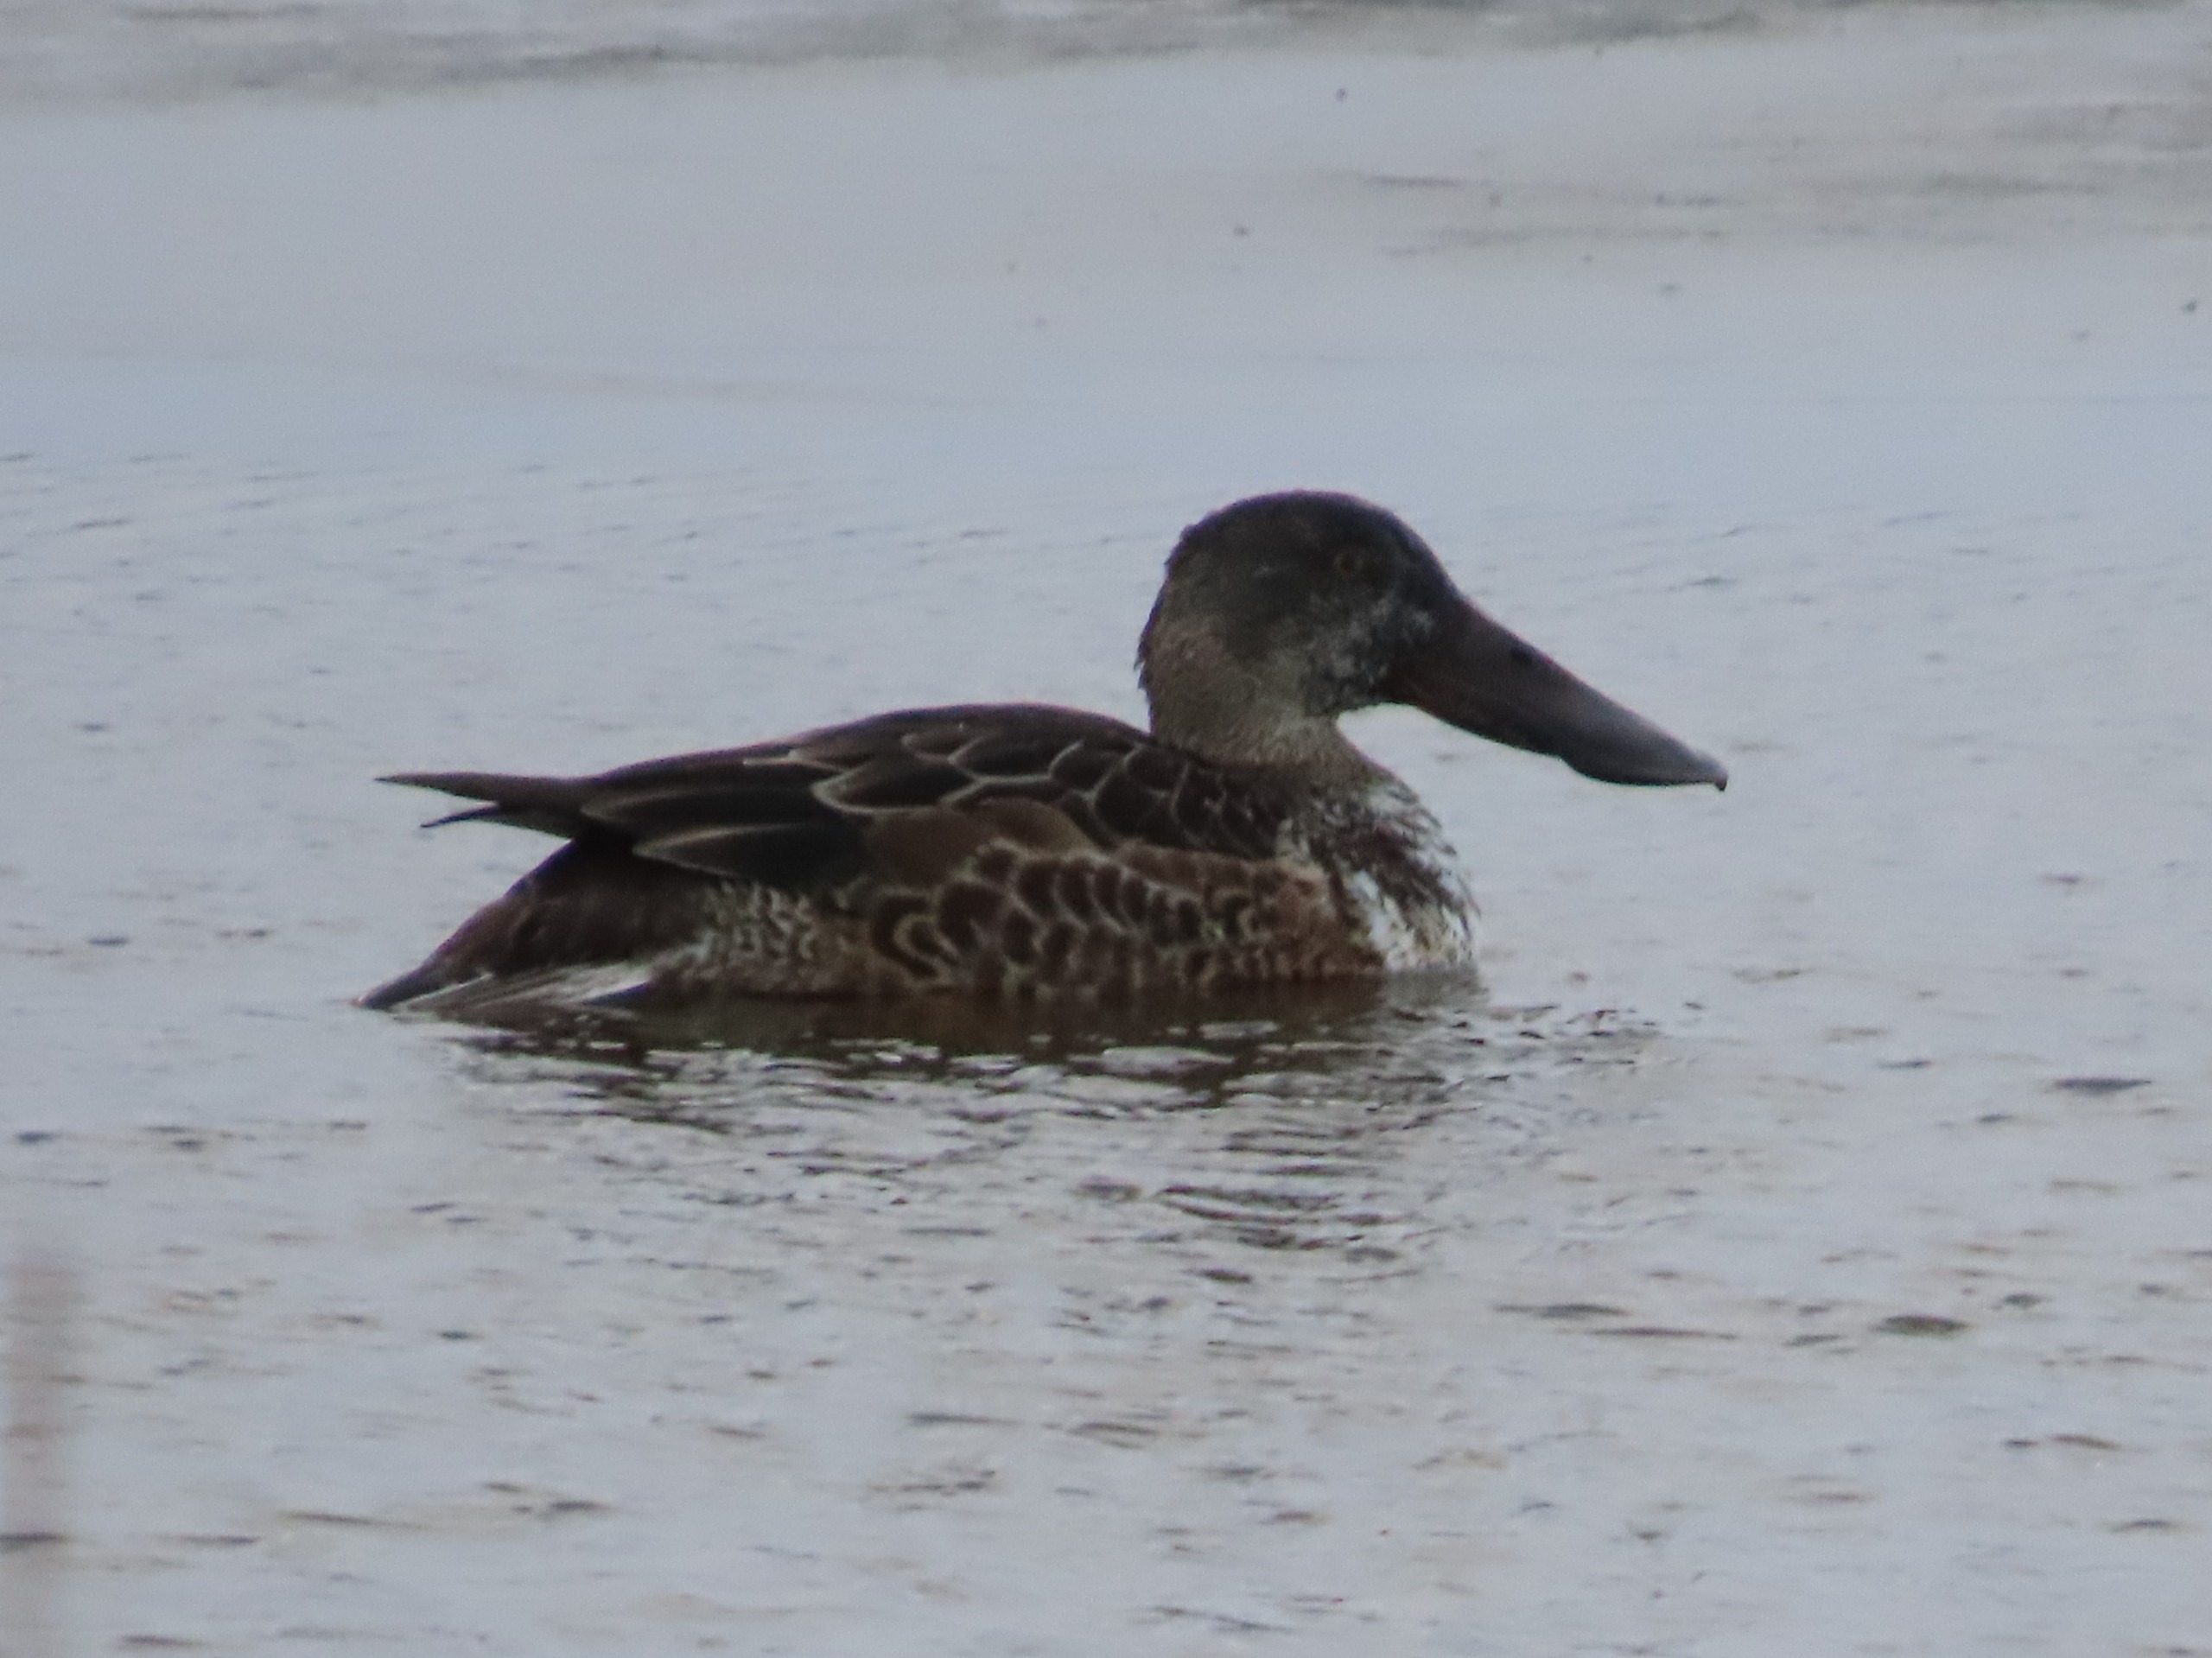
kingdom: Animalia
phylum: Chordata
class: Aves
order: Anseriformes
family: Anatidae
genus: Spatula
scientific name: Spatula clypeata
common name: Skeand
